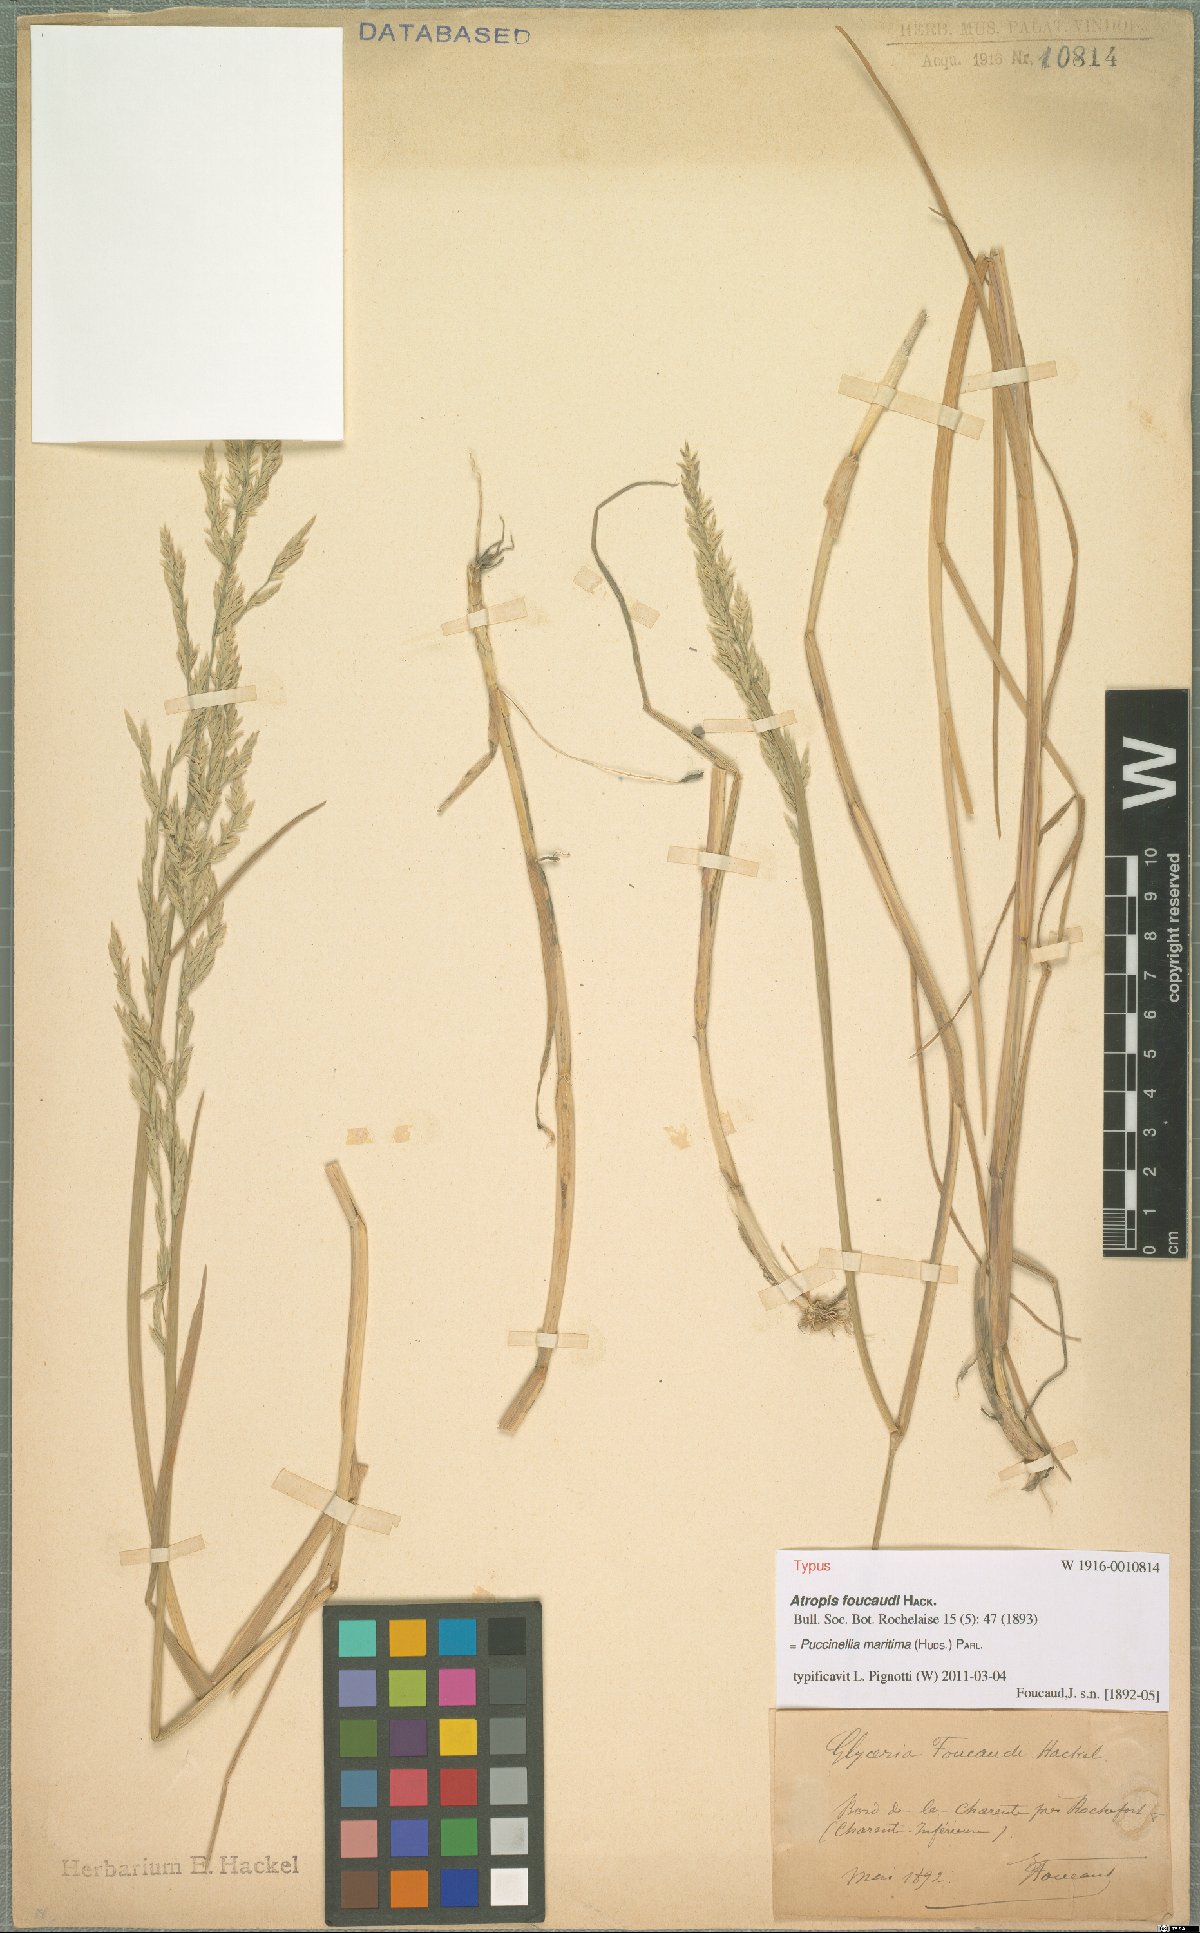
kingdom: Plantae
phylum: Tracheophyta
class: Liliopsida
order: Poales
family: Poaceae
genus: Puccinellia
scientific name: Puccinellia maritima
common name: Common saltmarsh grass
